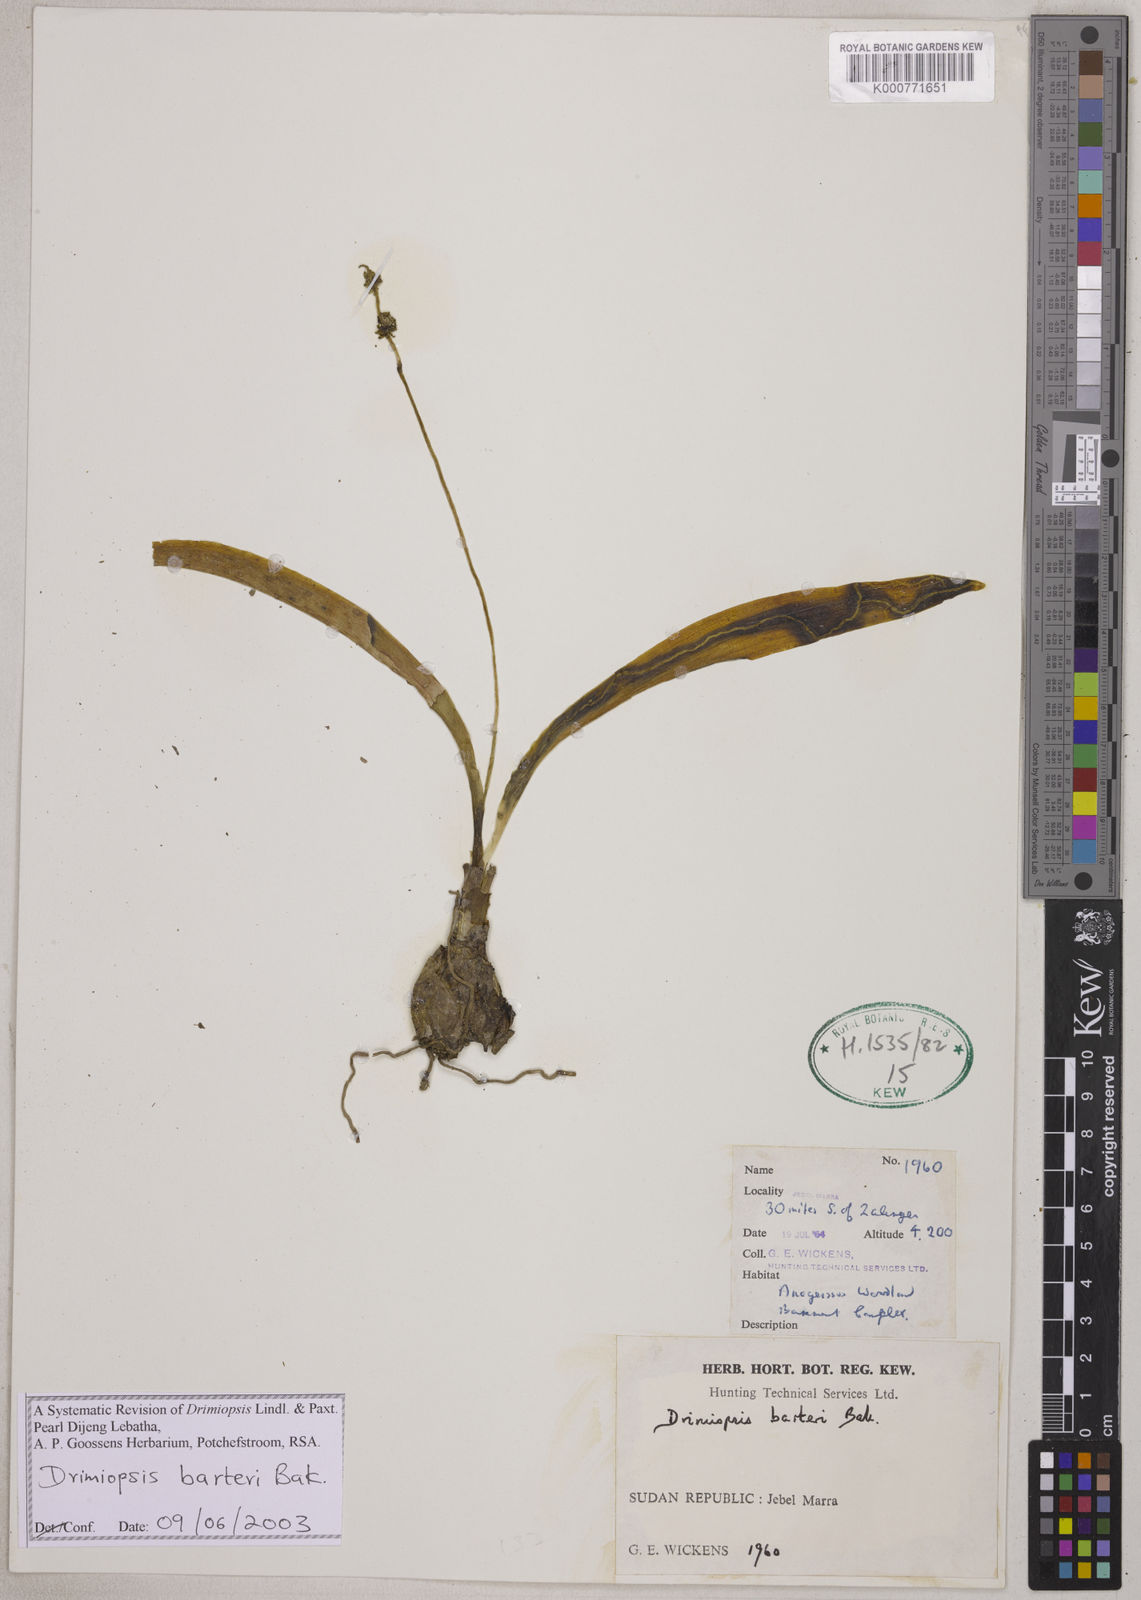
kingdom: Plantae
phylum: Tracheophyta
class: Liliopsida
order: Asparagales
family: Asparagaceae
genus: Drimiopsis
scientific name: Drimiopsis barteri
